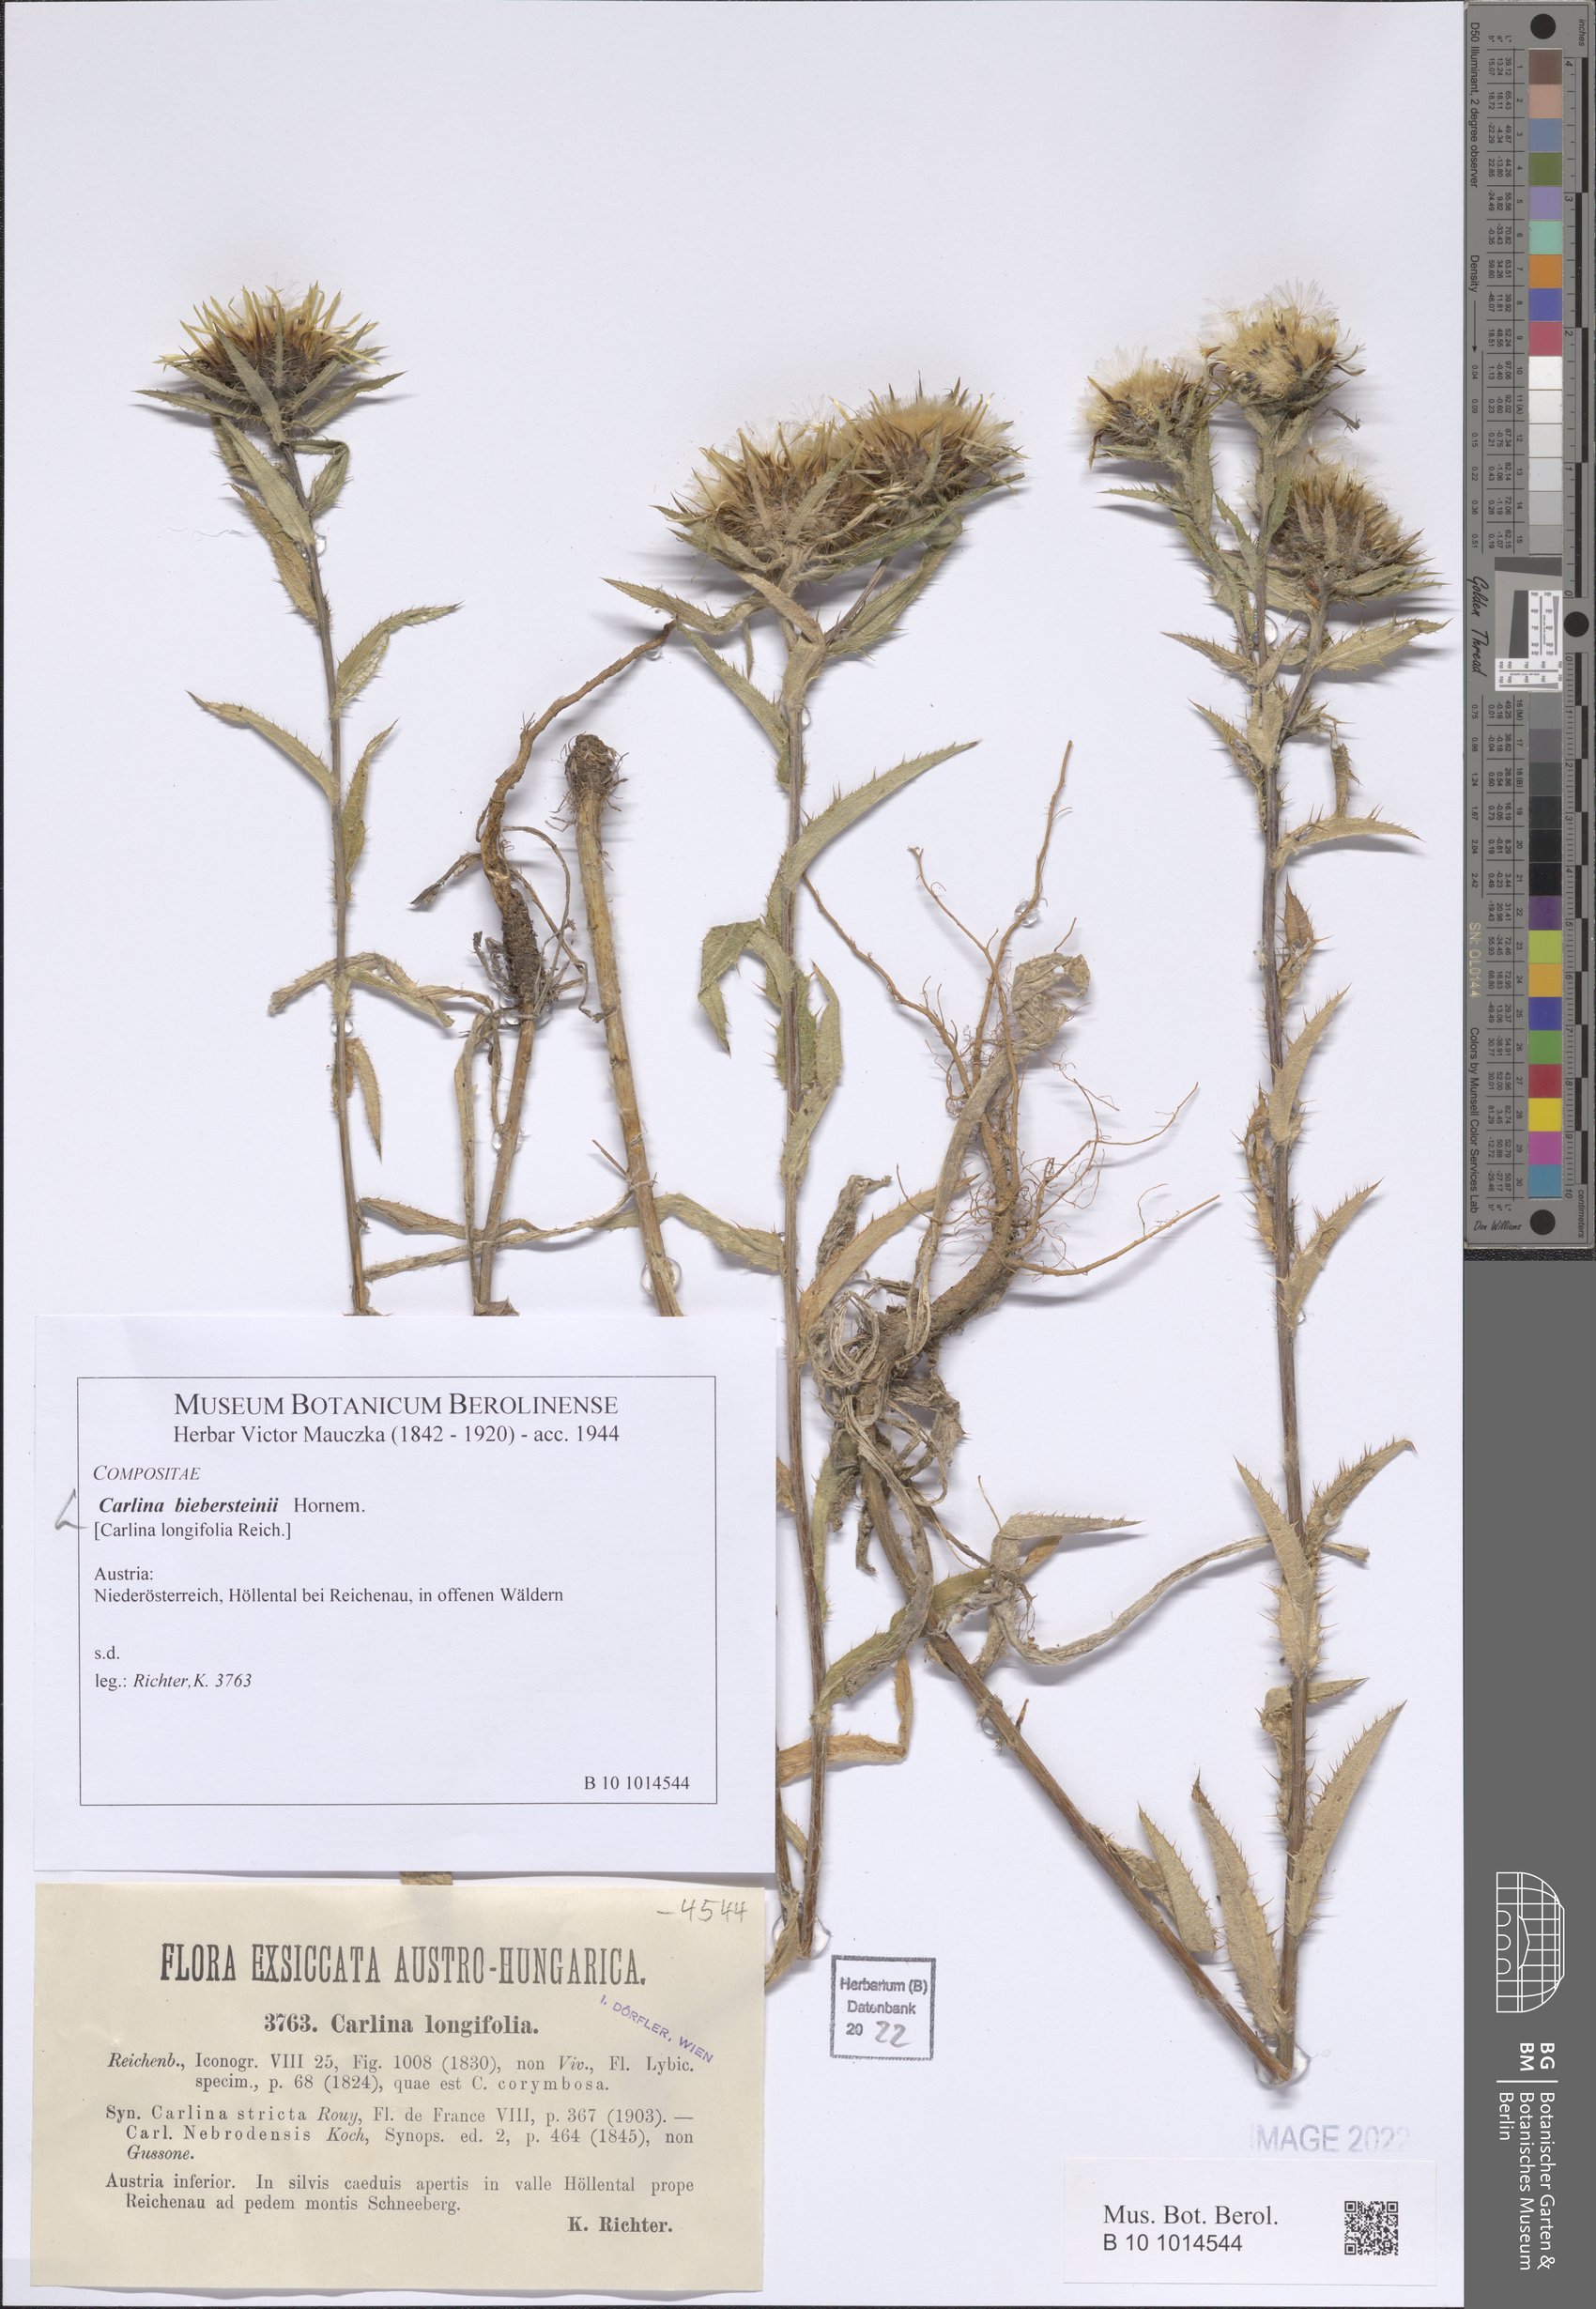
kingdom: Plantae
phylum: Tracheophyta
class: Magnoliopsida
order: Asterales
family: Asteraceae
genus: Carlina
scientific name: Carlina biebersteinii
